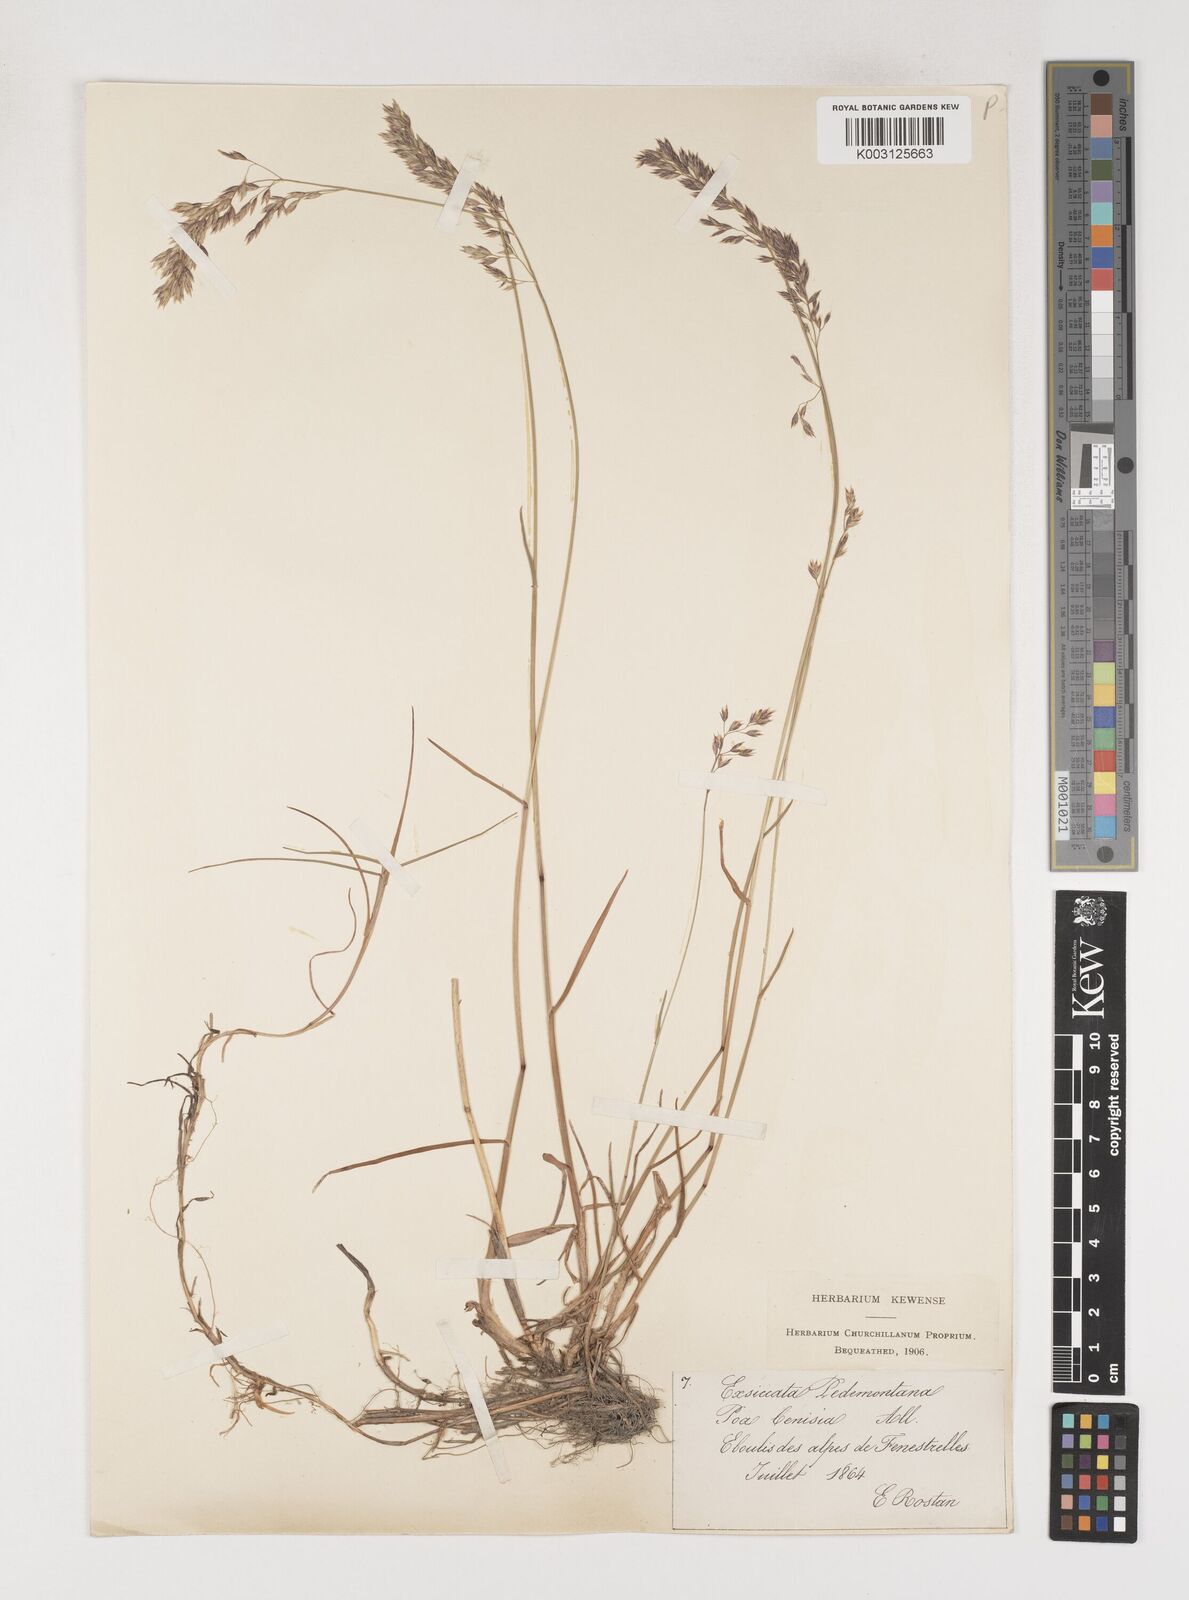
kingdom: Plantae
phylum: Tracheophyta
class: Liliopsida
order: Poales
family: Poaceae
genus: Poa
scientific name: Poa
